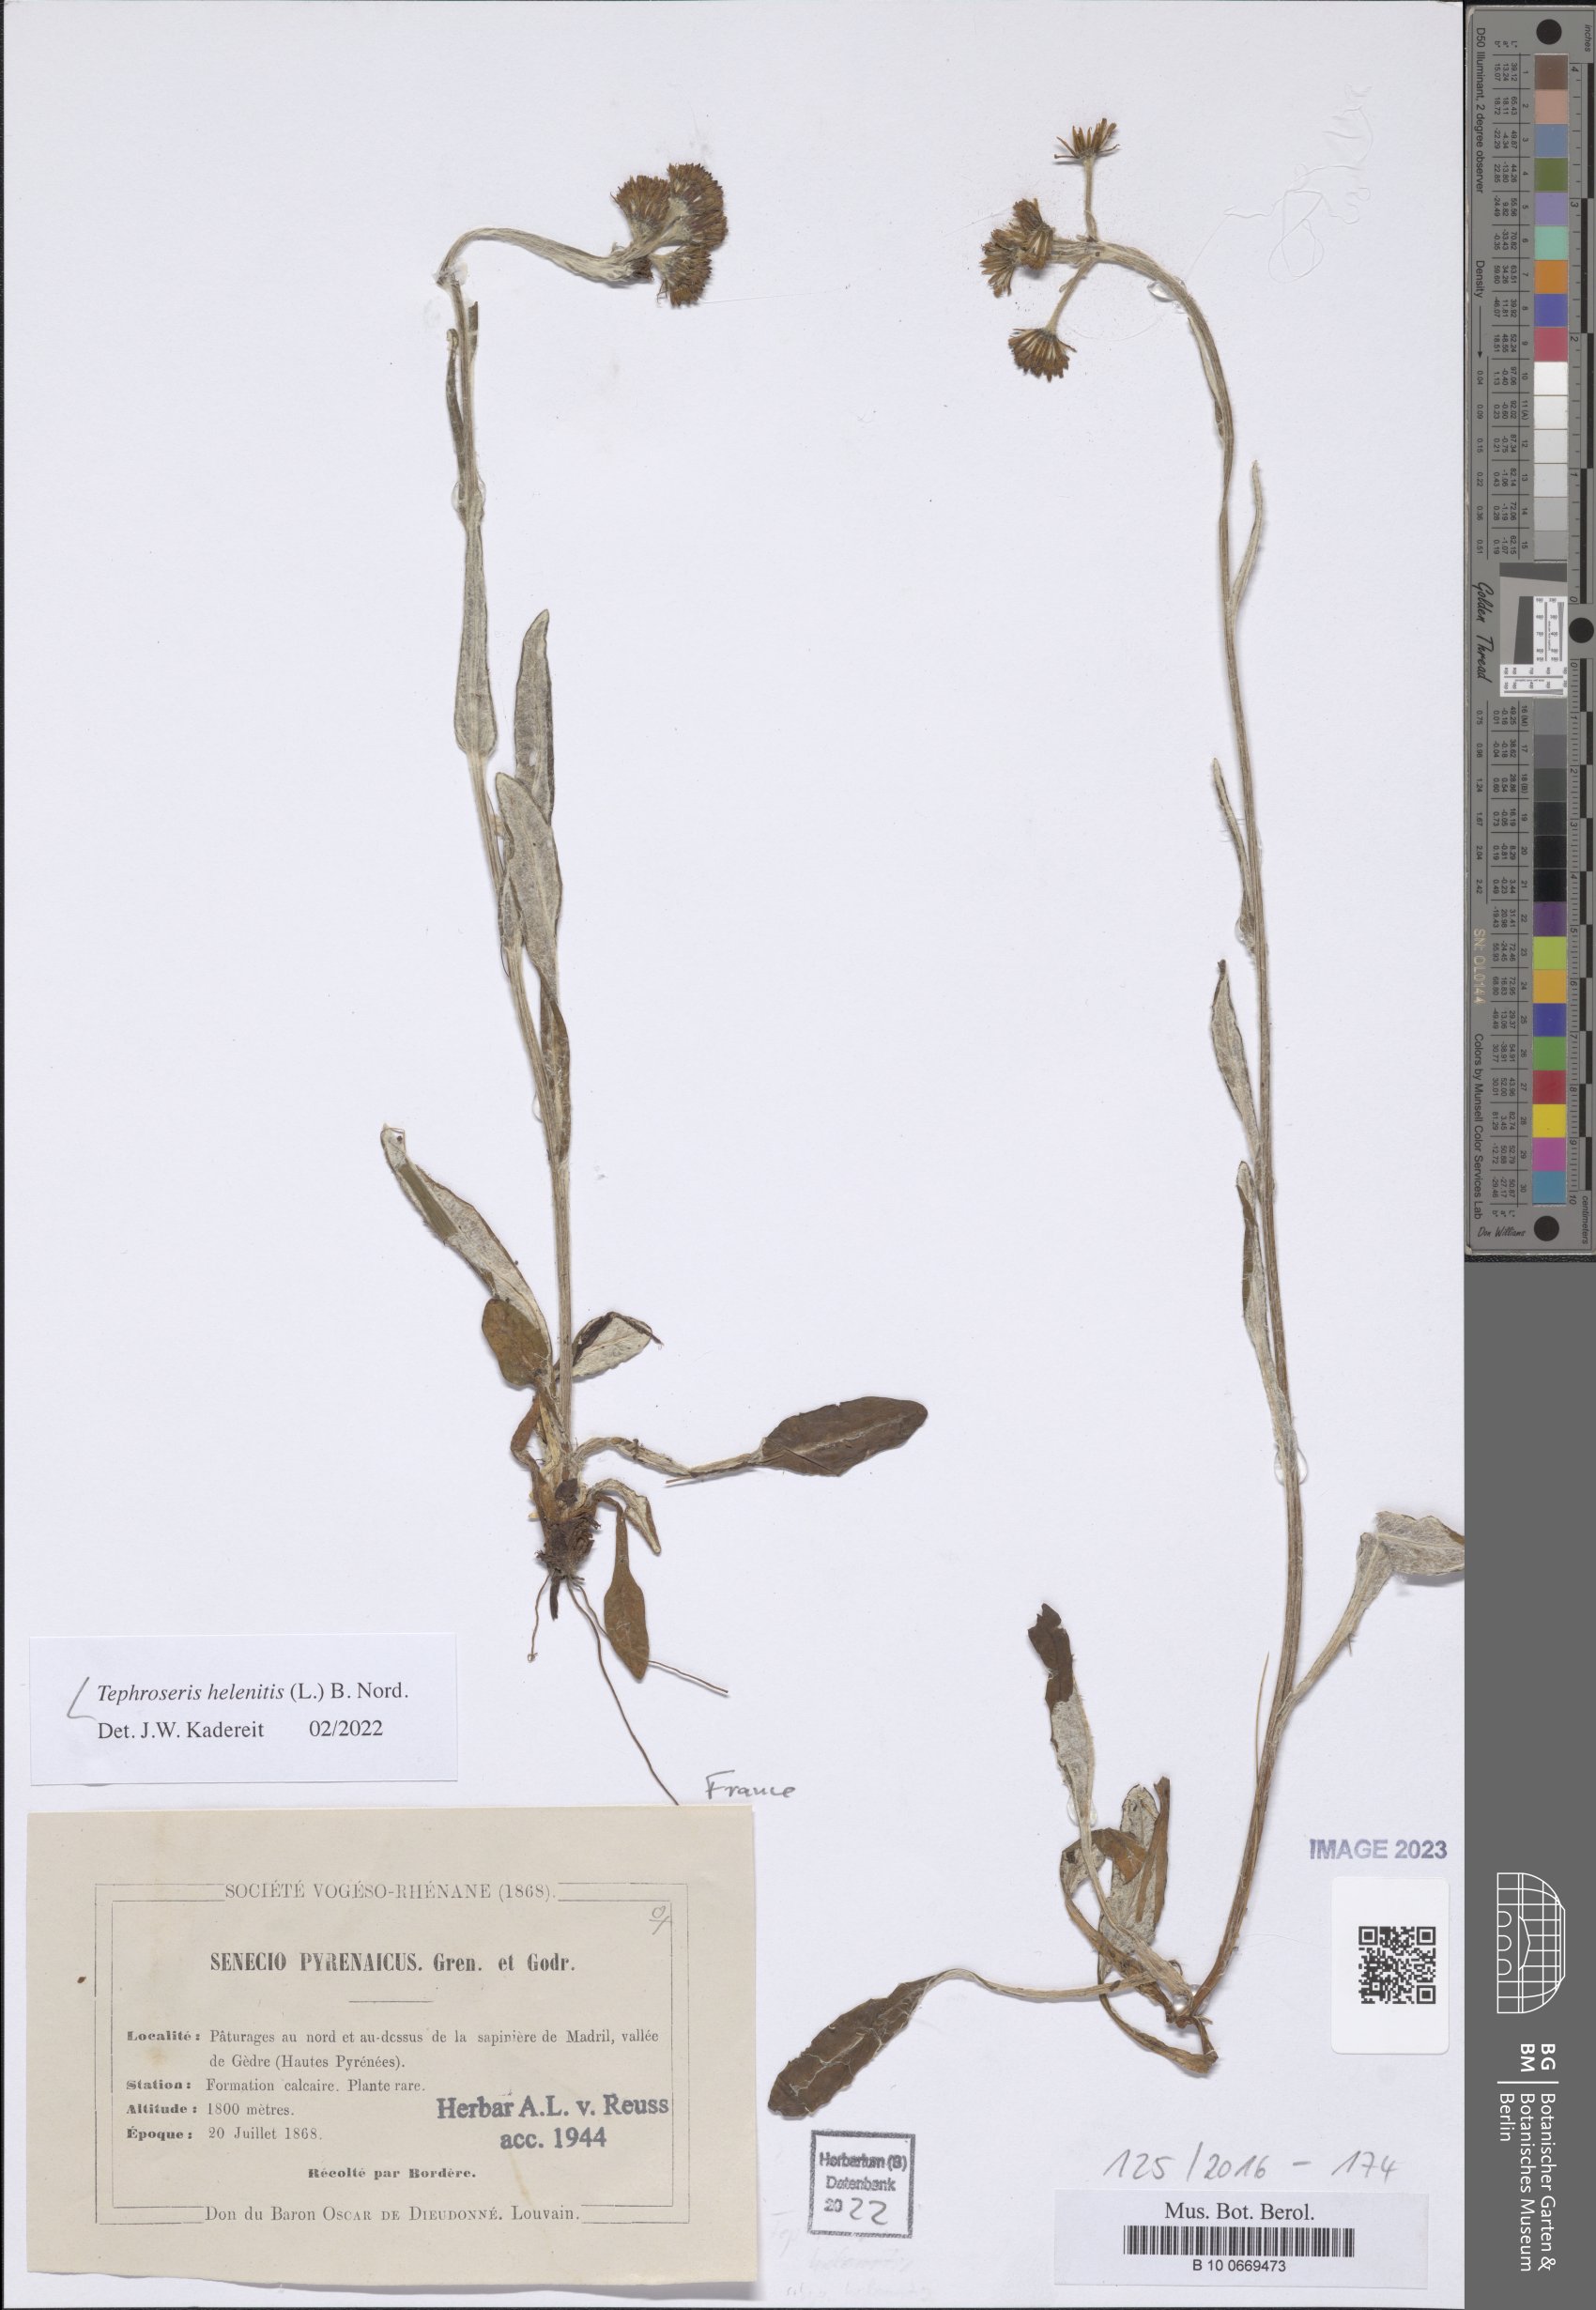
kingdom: Plantae
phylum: Tracheophyta
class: Magnoliopsida
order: Asterales
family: Asteraceae
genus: Tephroseris
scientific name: Tephroseris helenitis
